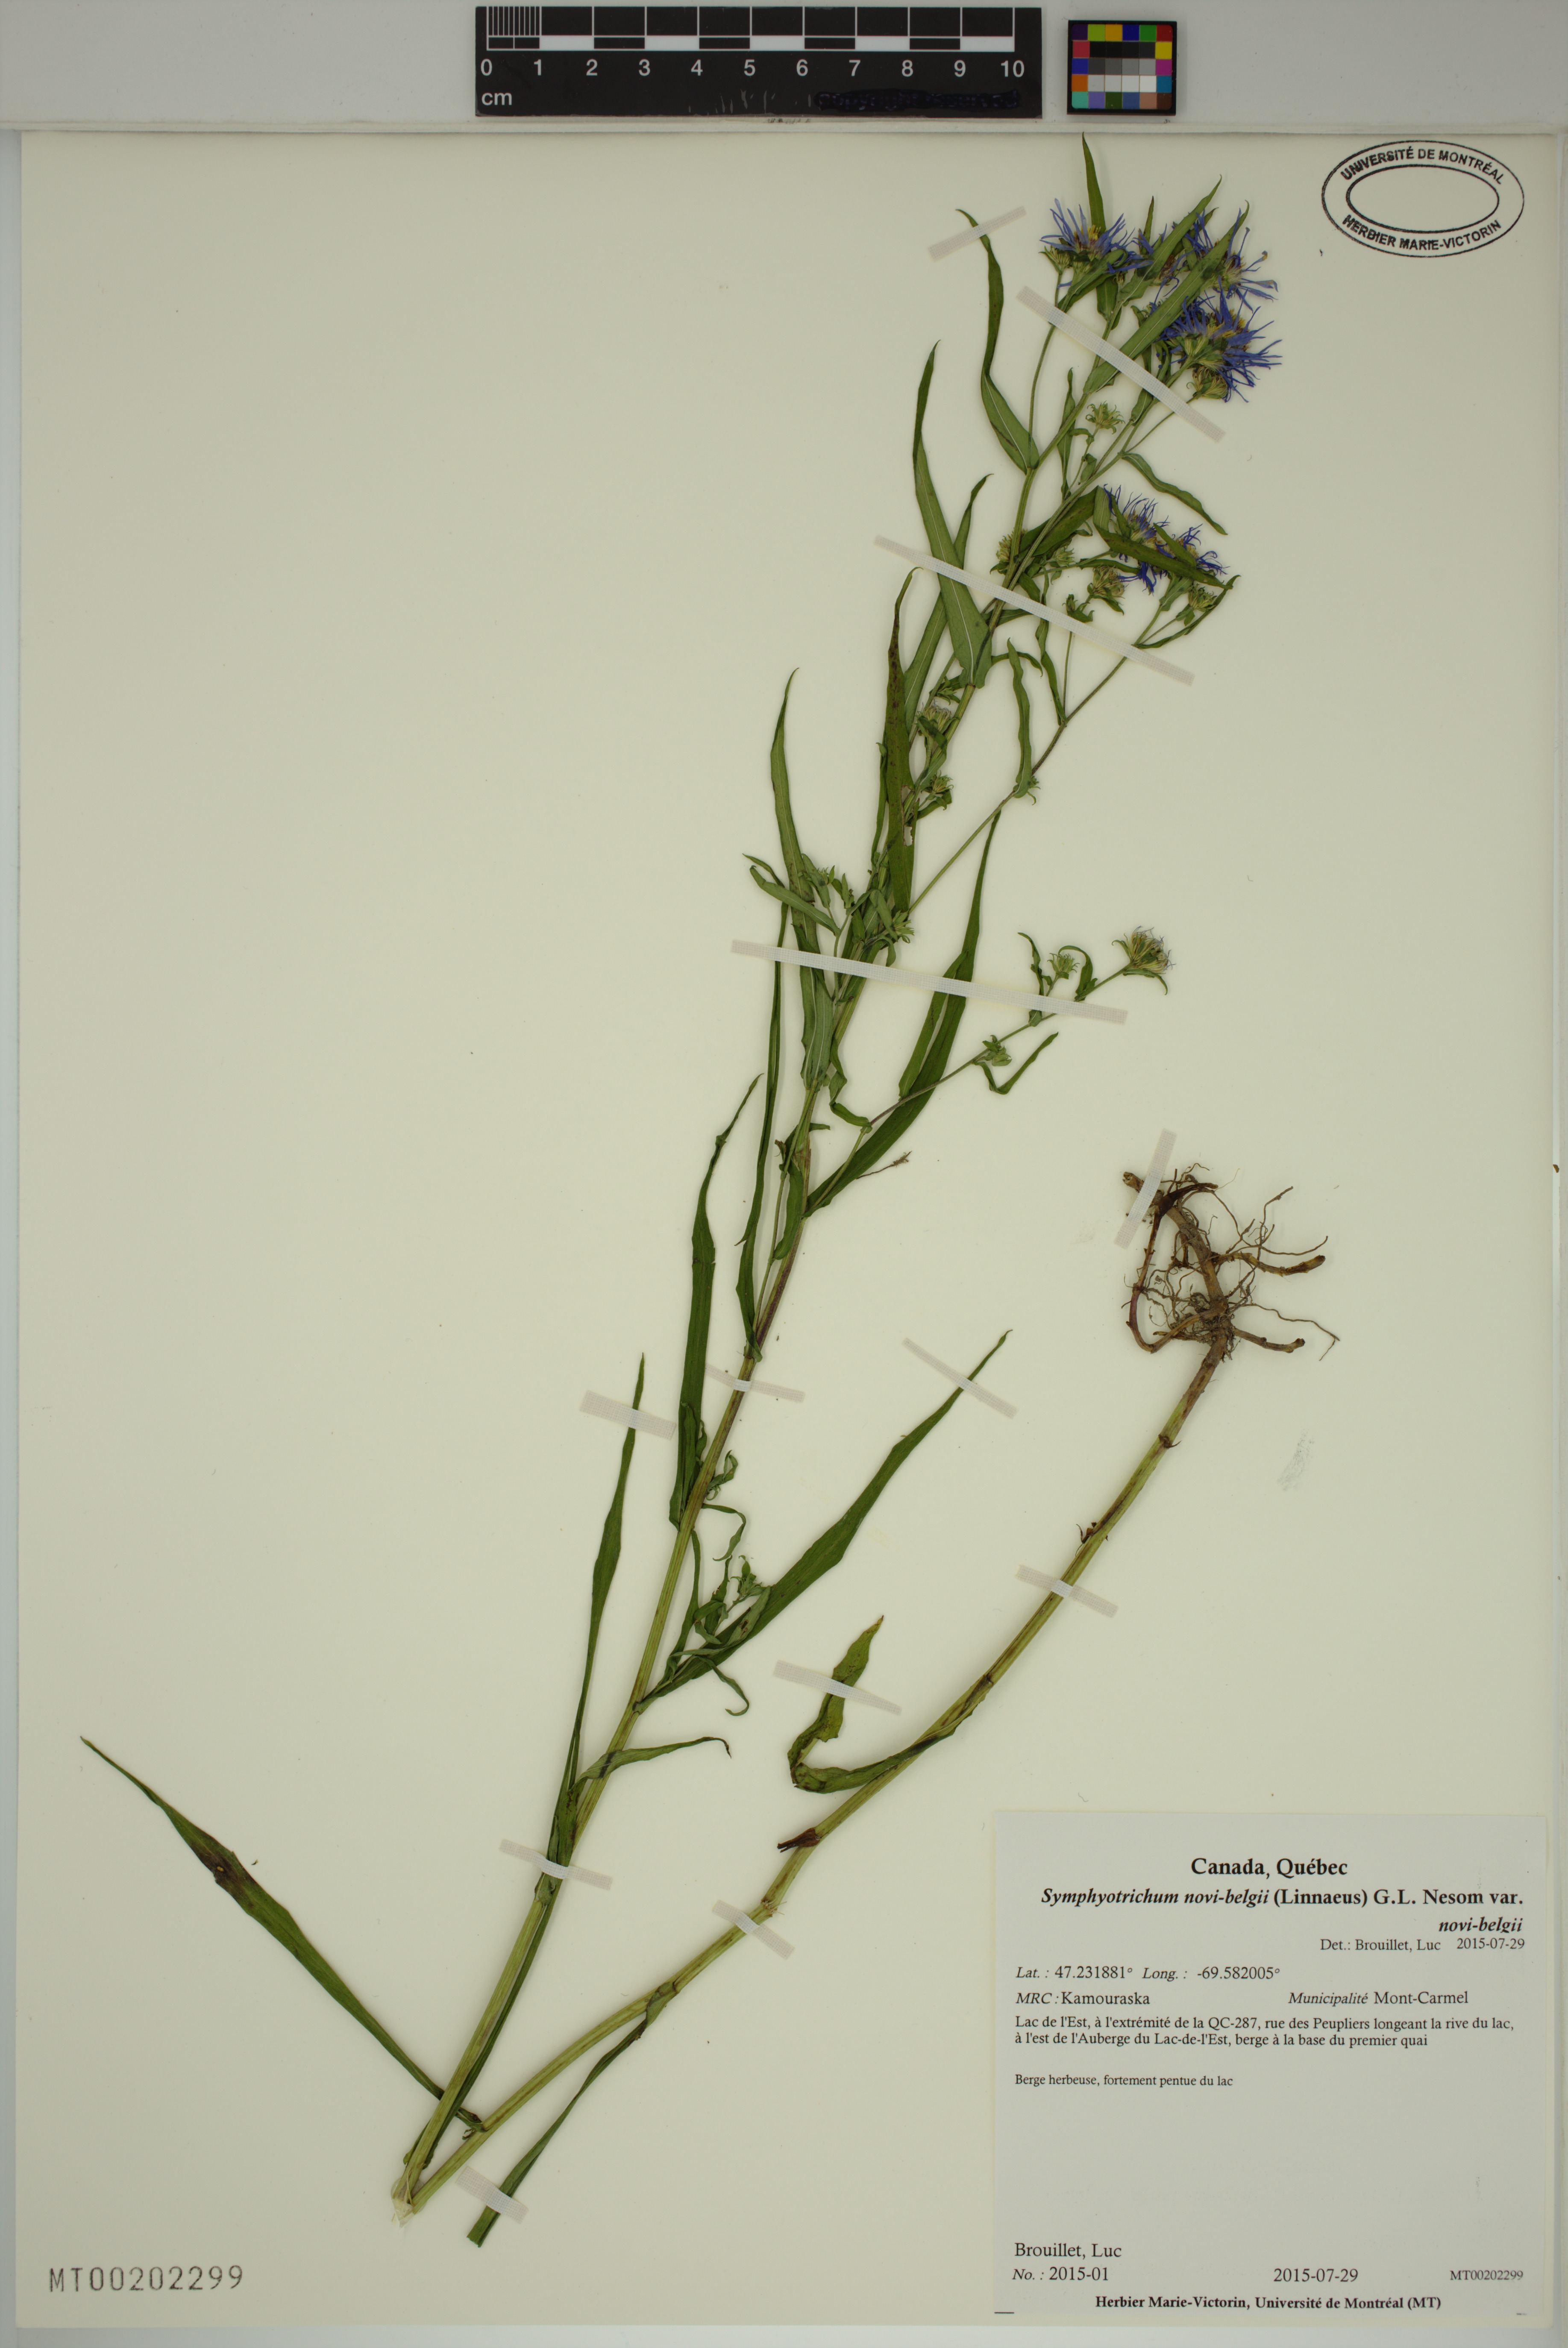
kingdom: Plantae
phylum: Tracheophyta
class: Magnoliopsida
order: Asterales
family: Asteraceae
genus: Symphyotrichum
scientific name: Symphyotrichum novi-belgii
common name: Michaelmas daisy
